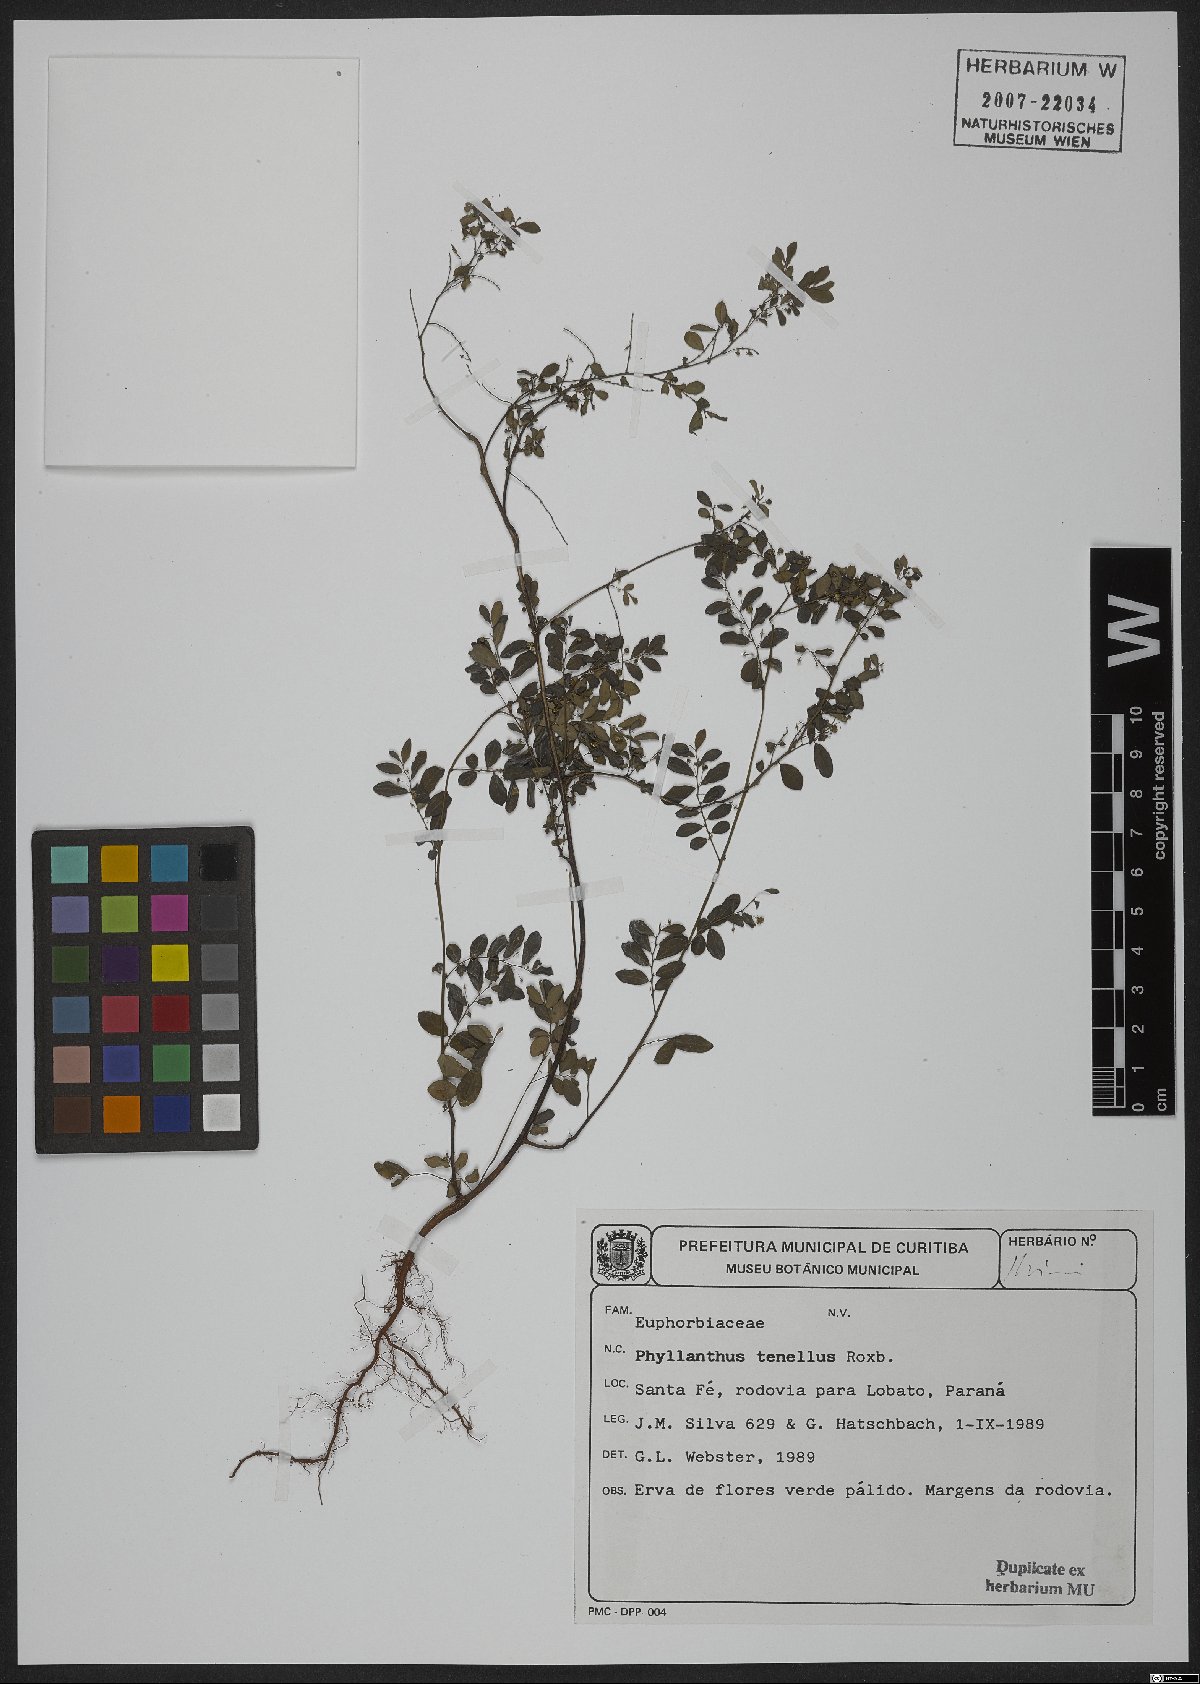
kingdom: Plantae
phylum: Tracheophyta
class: Magnoliopsida
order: Malpighiales
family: Phyllanthaceae
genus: Phyllanthus
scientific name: Phyllanthus tenellus
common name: Mascarene island leaf-flower
